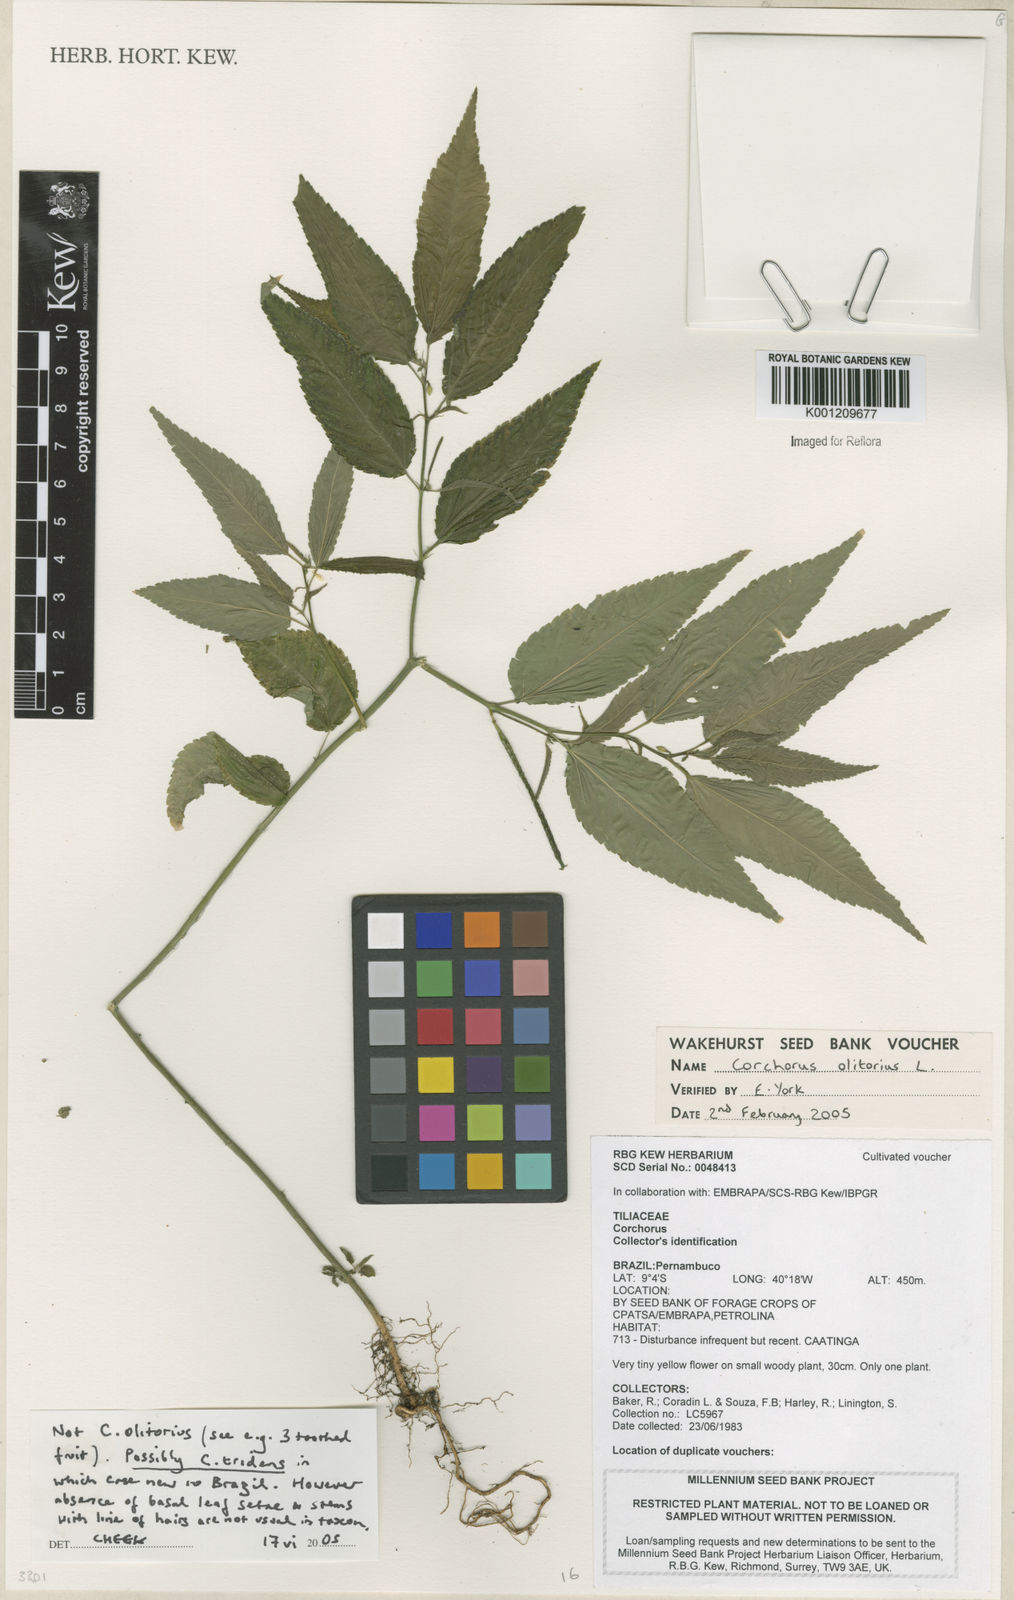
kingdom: Plantae
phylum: Tracheophyta
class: Magnoliopsida
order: Malvales
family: Malvaceae
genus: Corchorus
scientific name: Corchorus tridens
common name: Wild jute
